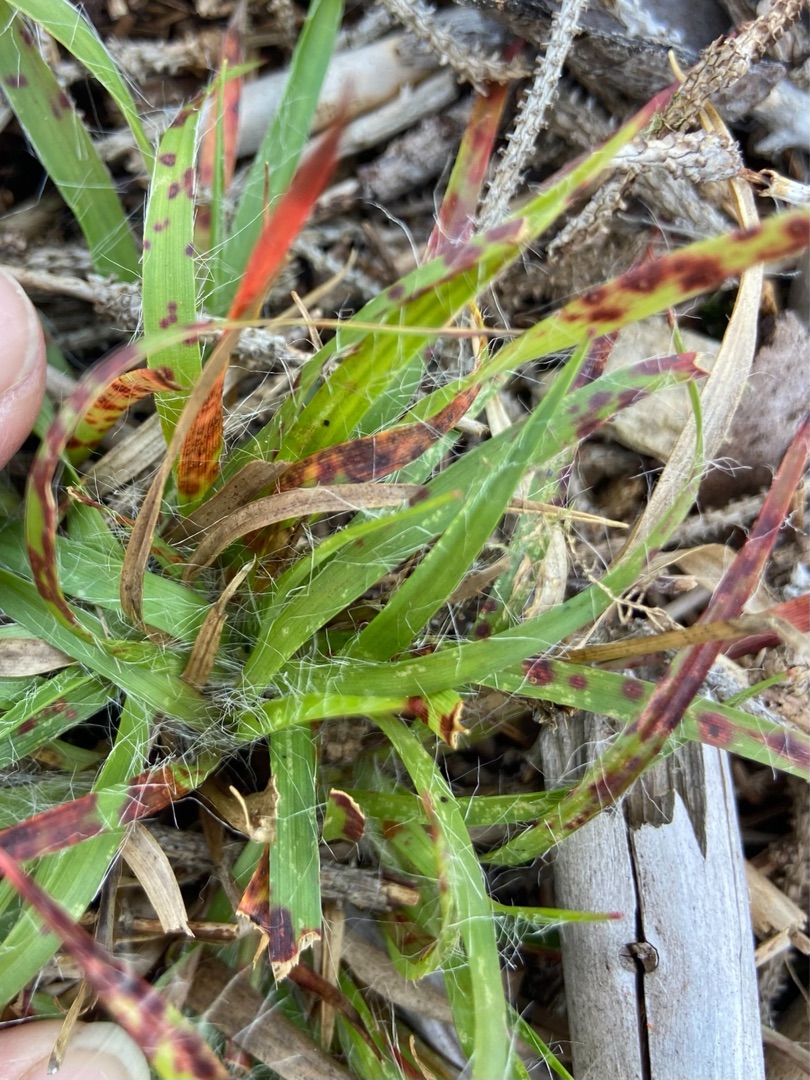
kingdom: Plantae
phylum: Tracheophyta
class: Liliopsida
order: Poales
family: Juncaceae
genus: Luzula
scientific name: Luzula campestris
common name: Mark-frytle
